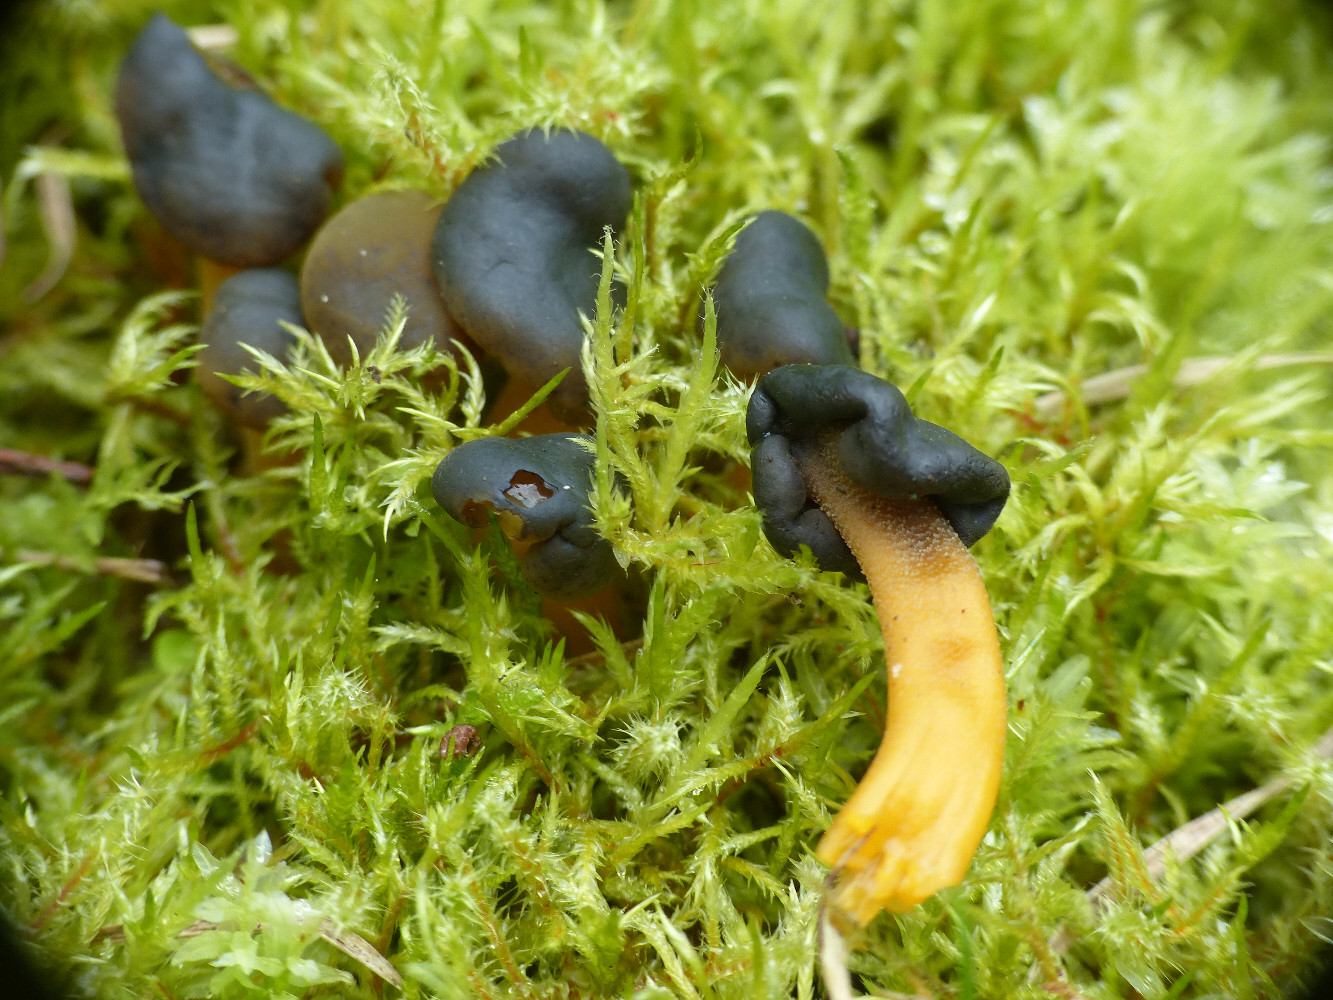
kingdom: Fungi
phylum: Ascomycota
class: Leotiomycetes
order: Leotiales
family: Leotiaceae
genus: Leotia
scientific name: Leotia lubrica
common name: ravsvamp
